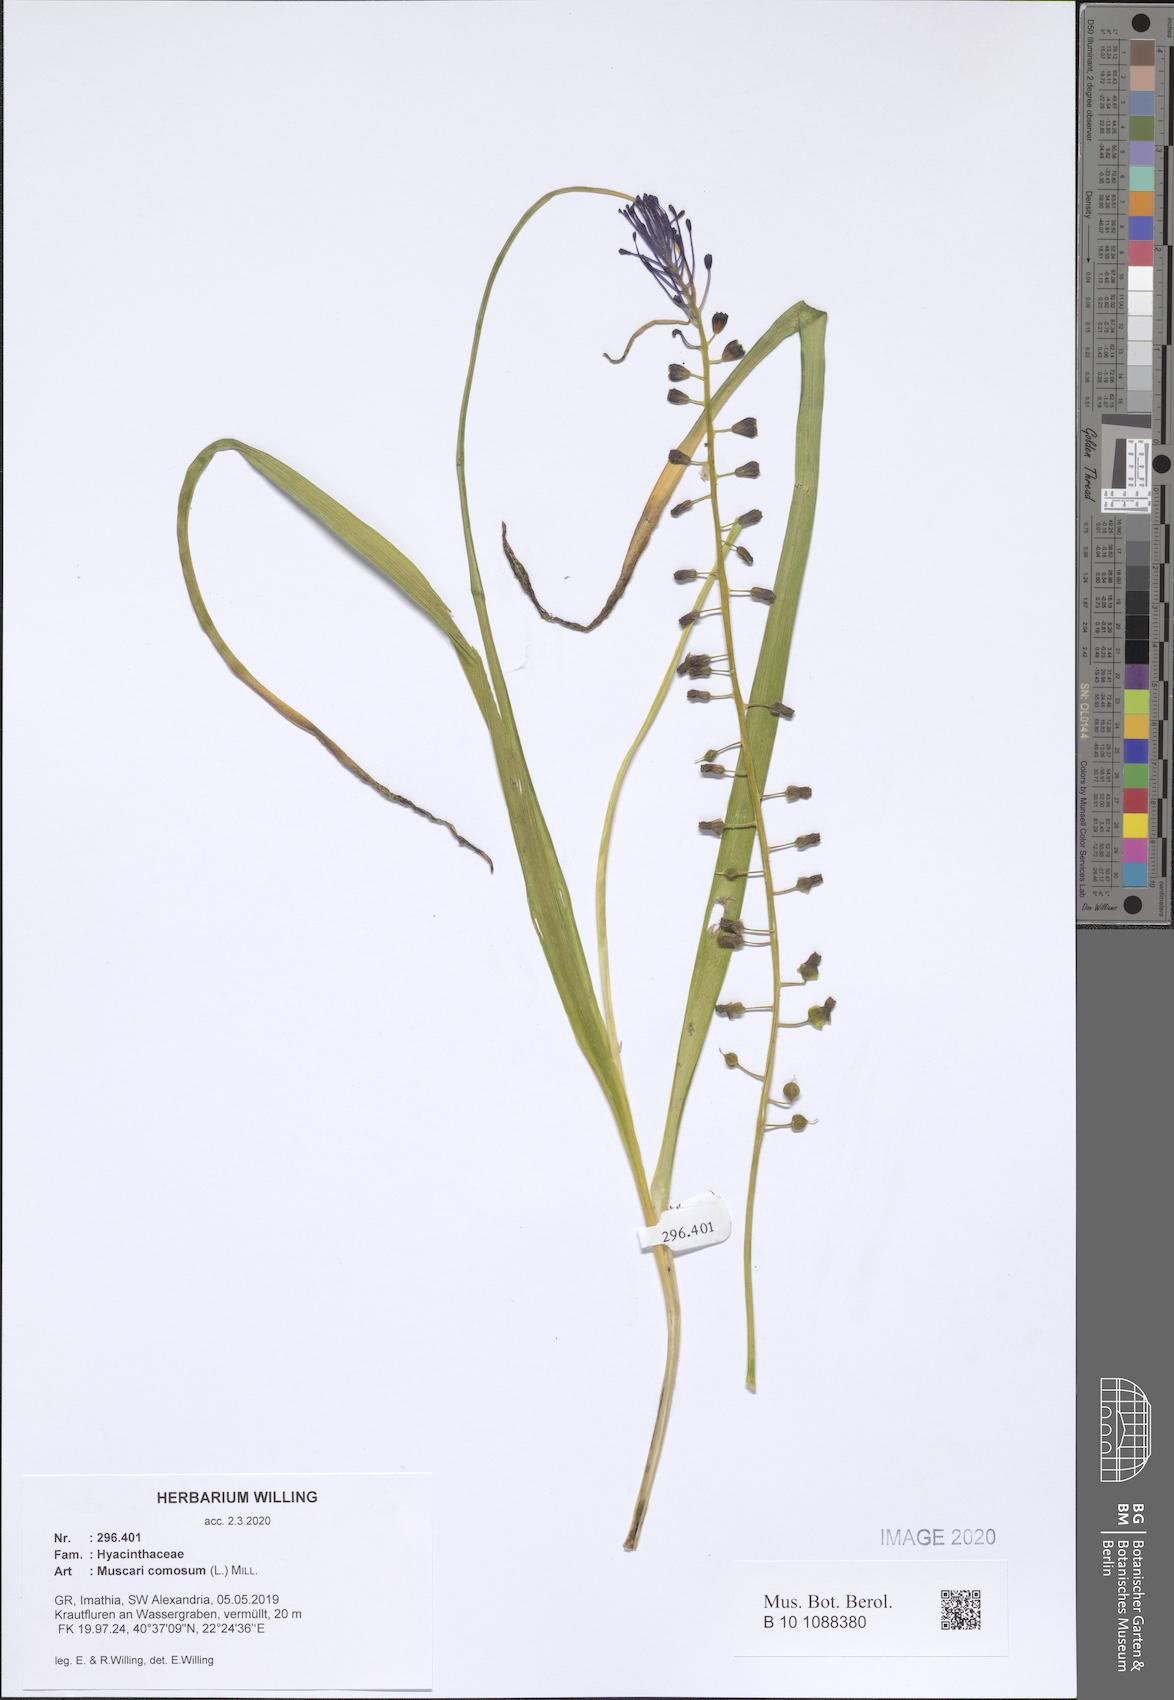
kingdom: Plantae
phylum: Tracheophyta
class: Liliopsida
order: Asparagales
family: Asparagaceae
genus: Muscari
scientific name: Muscari comosum
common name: Tassel hyacinth
